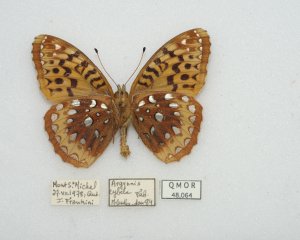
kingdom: Animalia
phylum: Arthropoda
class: Insecta
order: Lepidoptera
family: Nymphalidae
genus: Speyeria
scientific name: Speyeria cybele
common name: Great Spangled Fritillary
